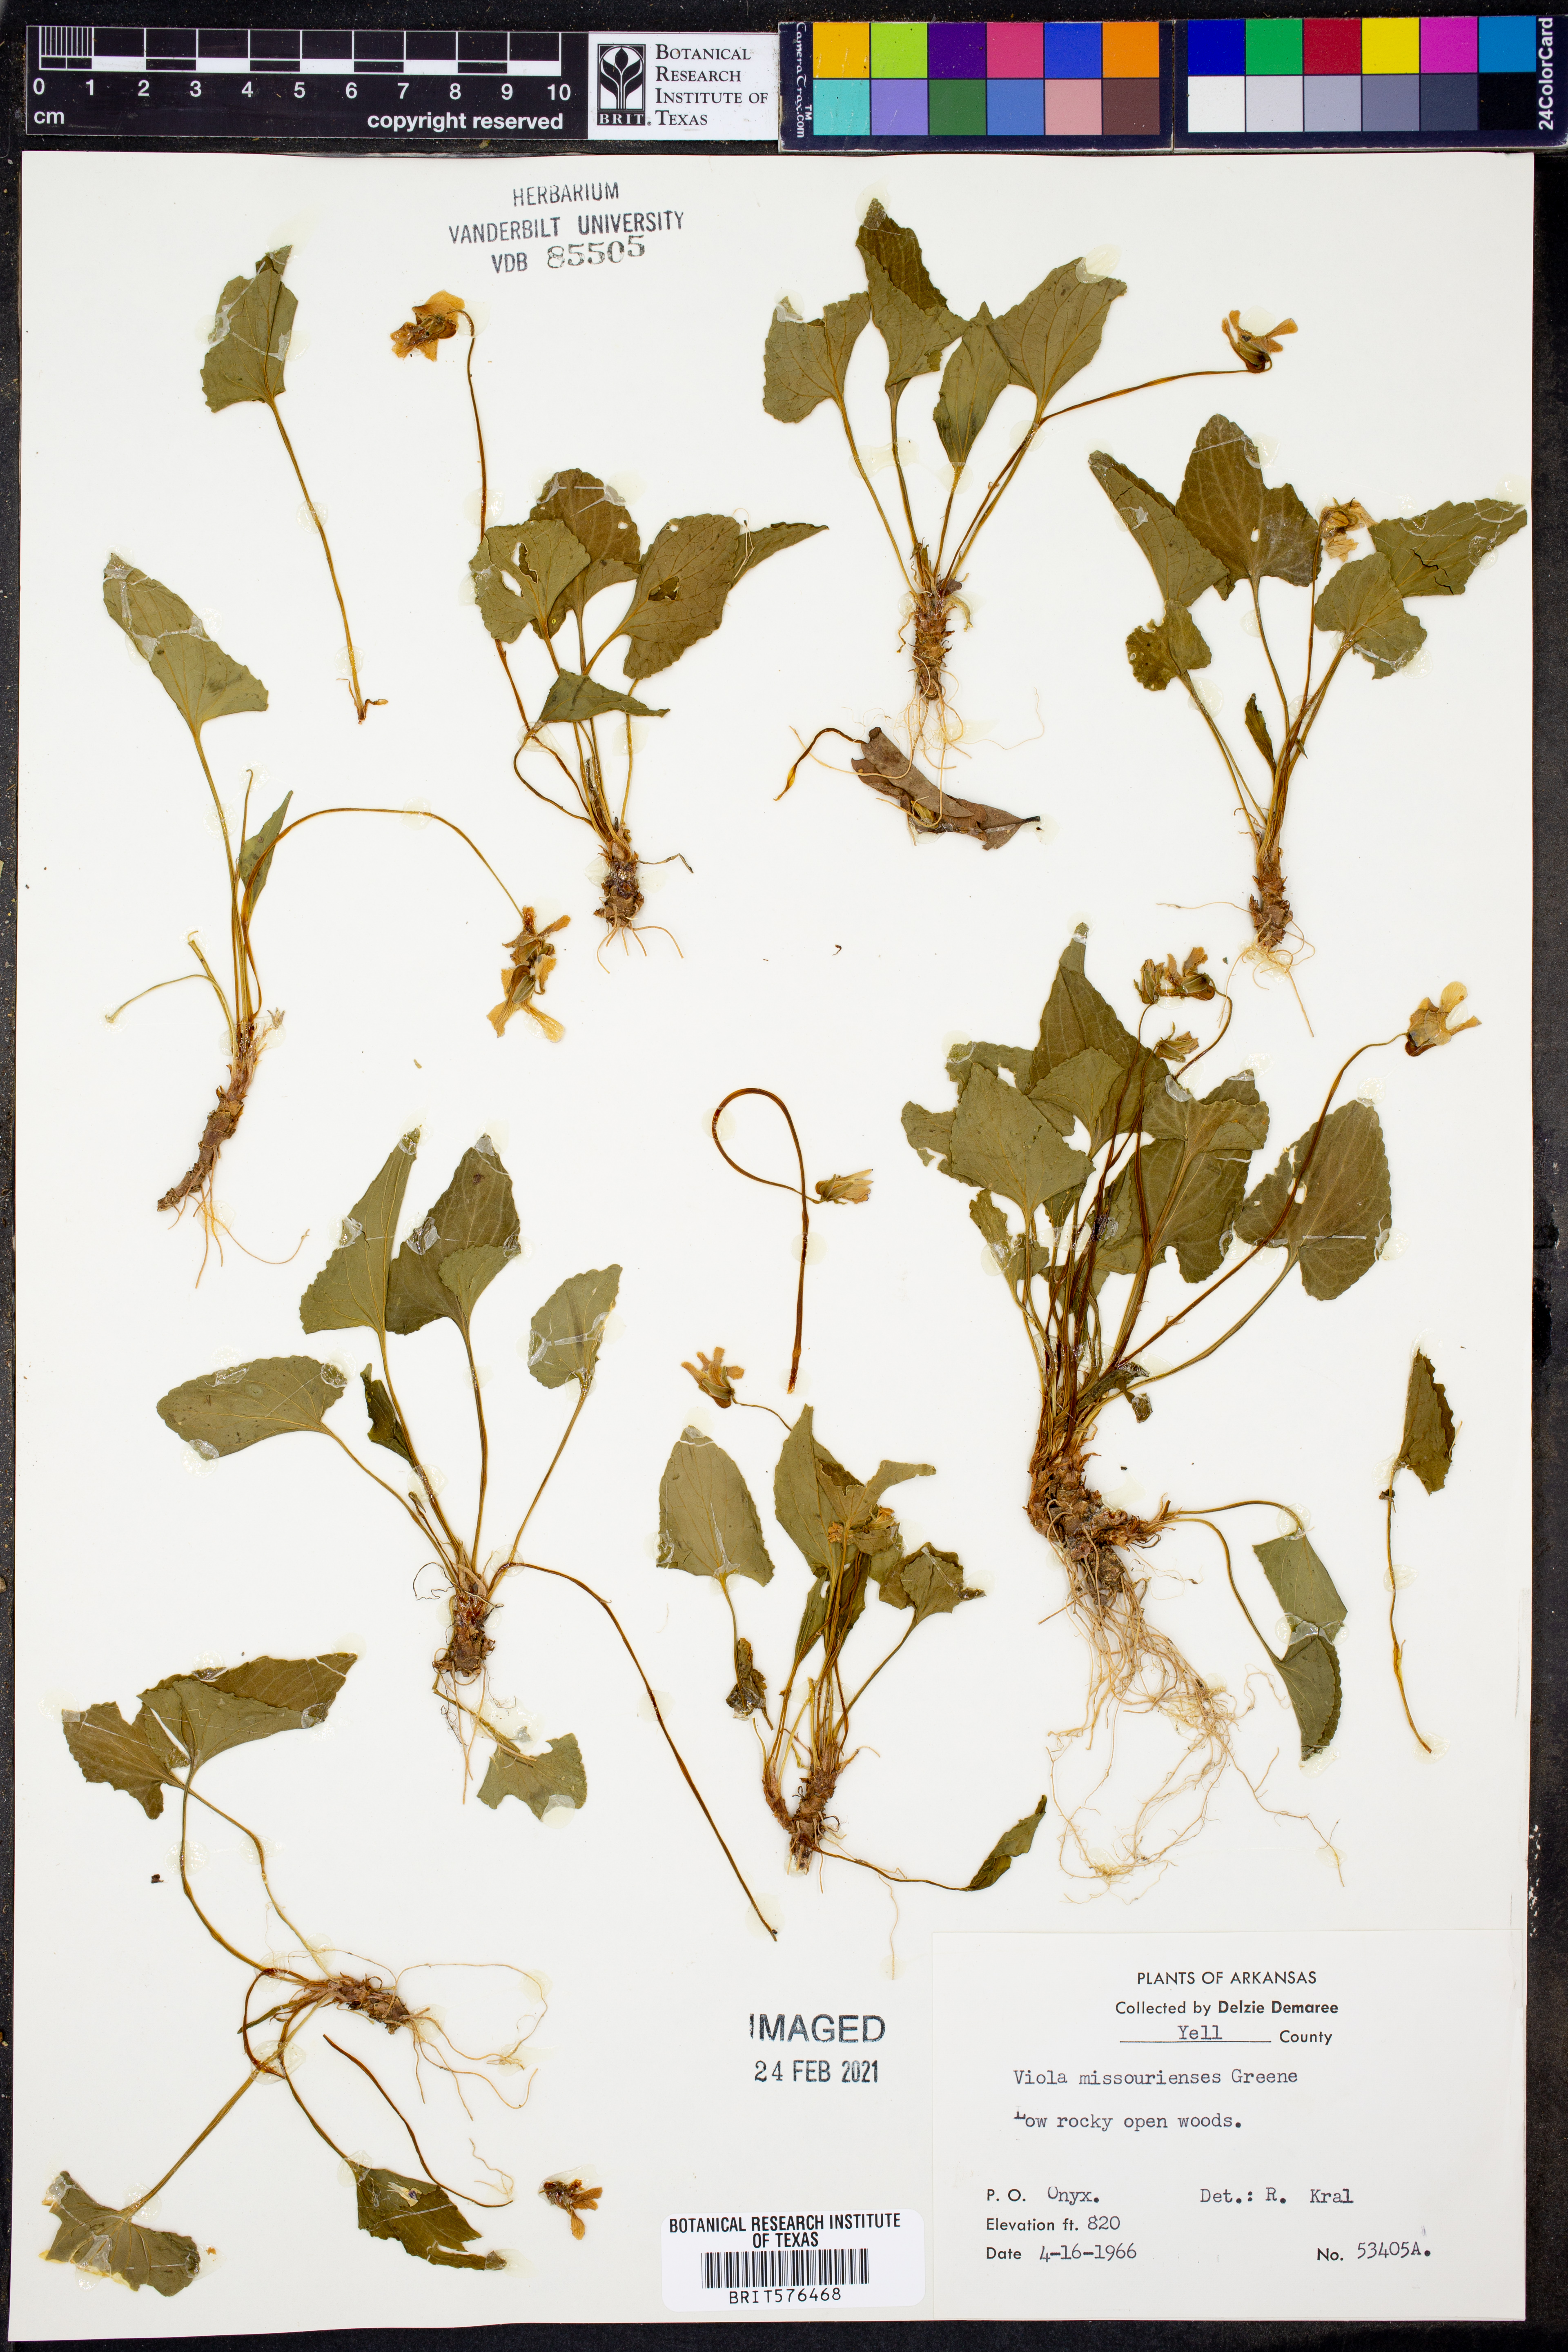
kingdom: Plantae
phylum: Tracheophyta
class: Magnoliopsida
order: Malpighiales
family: Violaceae
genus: Viola
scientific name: Viola missouriensis
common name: Missouri violet
